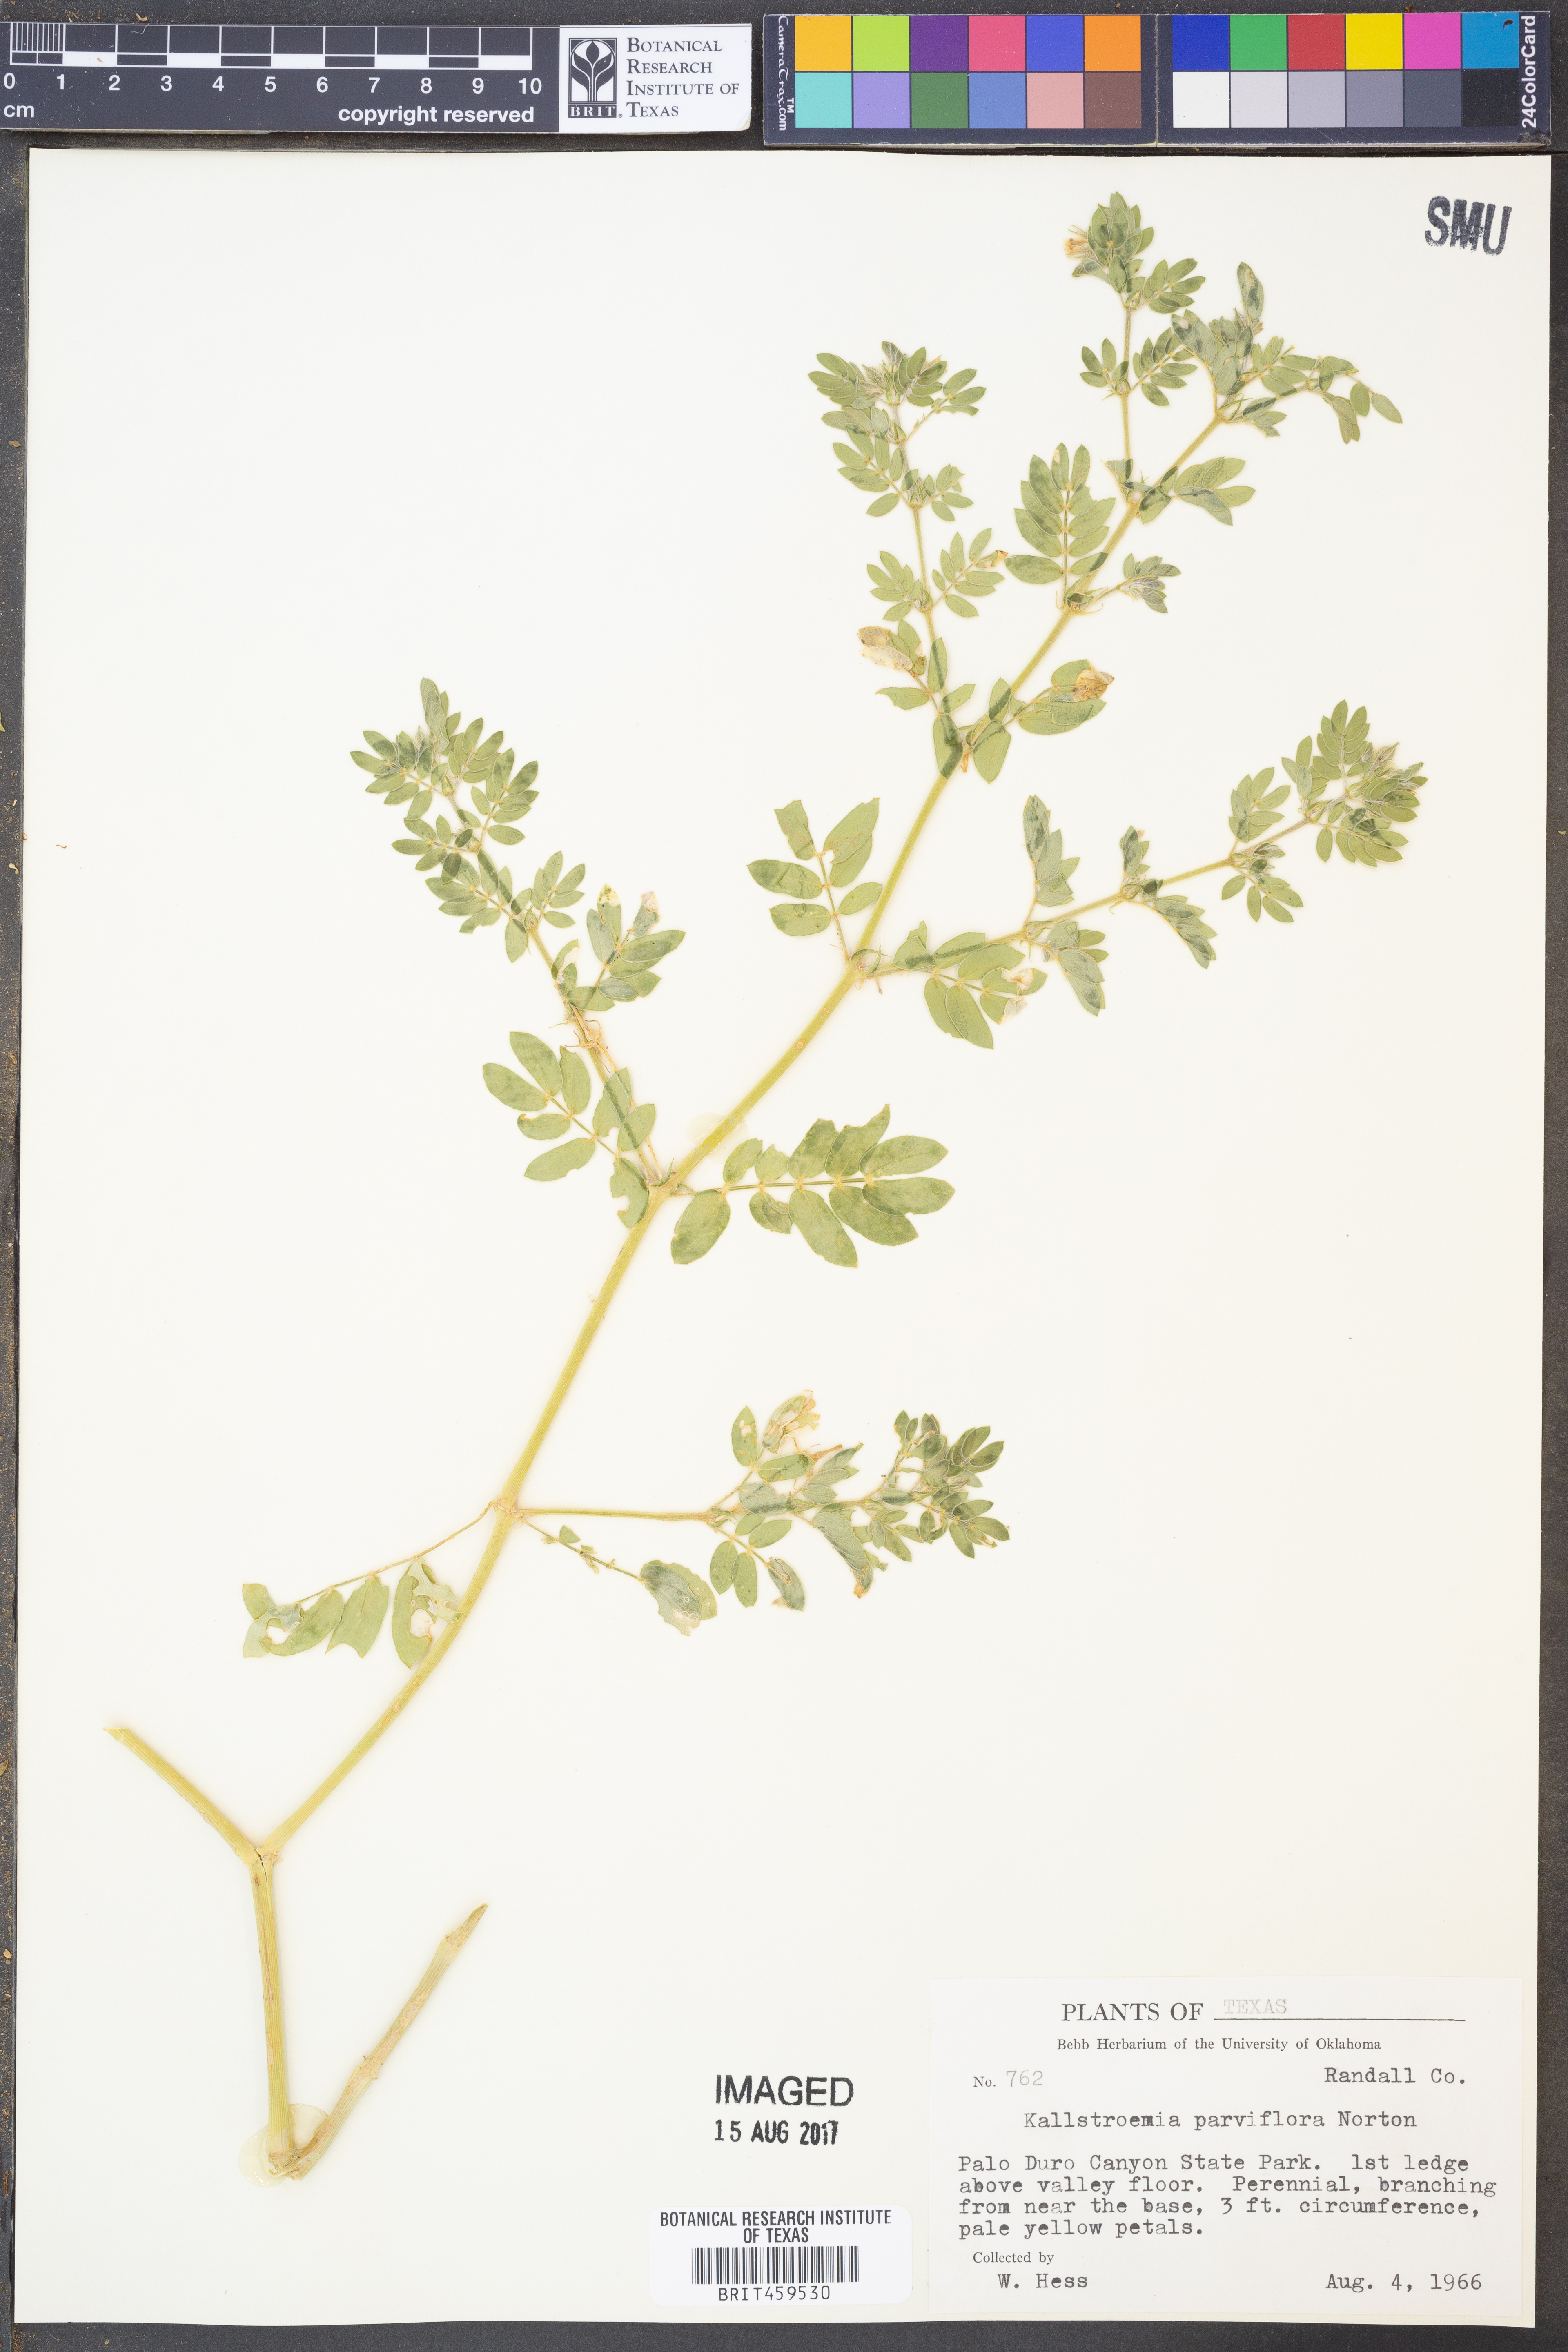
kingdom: Plantae
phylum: Tracheophyta
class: Magnoliopsida
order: Zygophyllales
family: Zygophyllaceae
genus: Kallstroemia
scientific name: Kallstroemia parviflora
